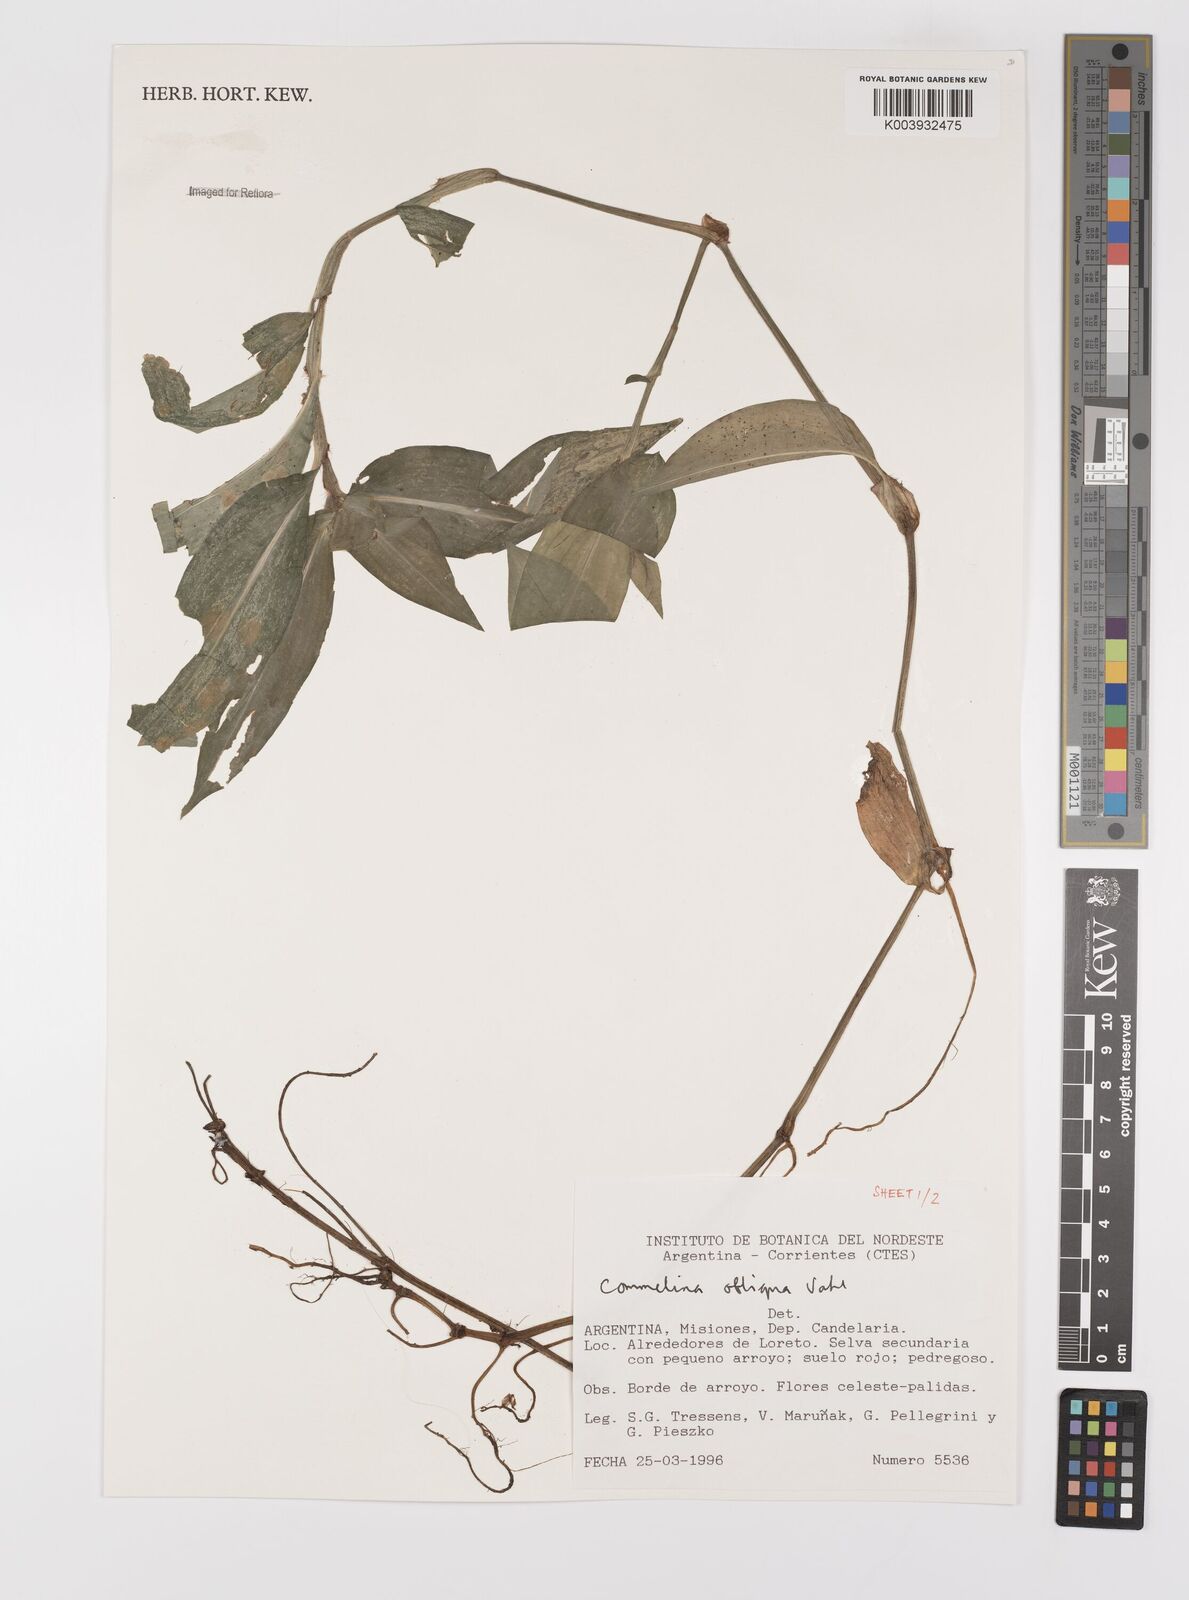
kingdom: Plantae
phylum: Tracheophyta
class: Liliopsida
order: Commelinales
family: Commelinaceae
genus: Commelina
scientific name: Commelina obliqua
